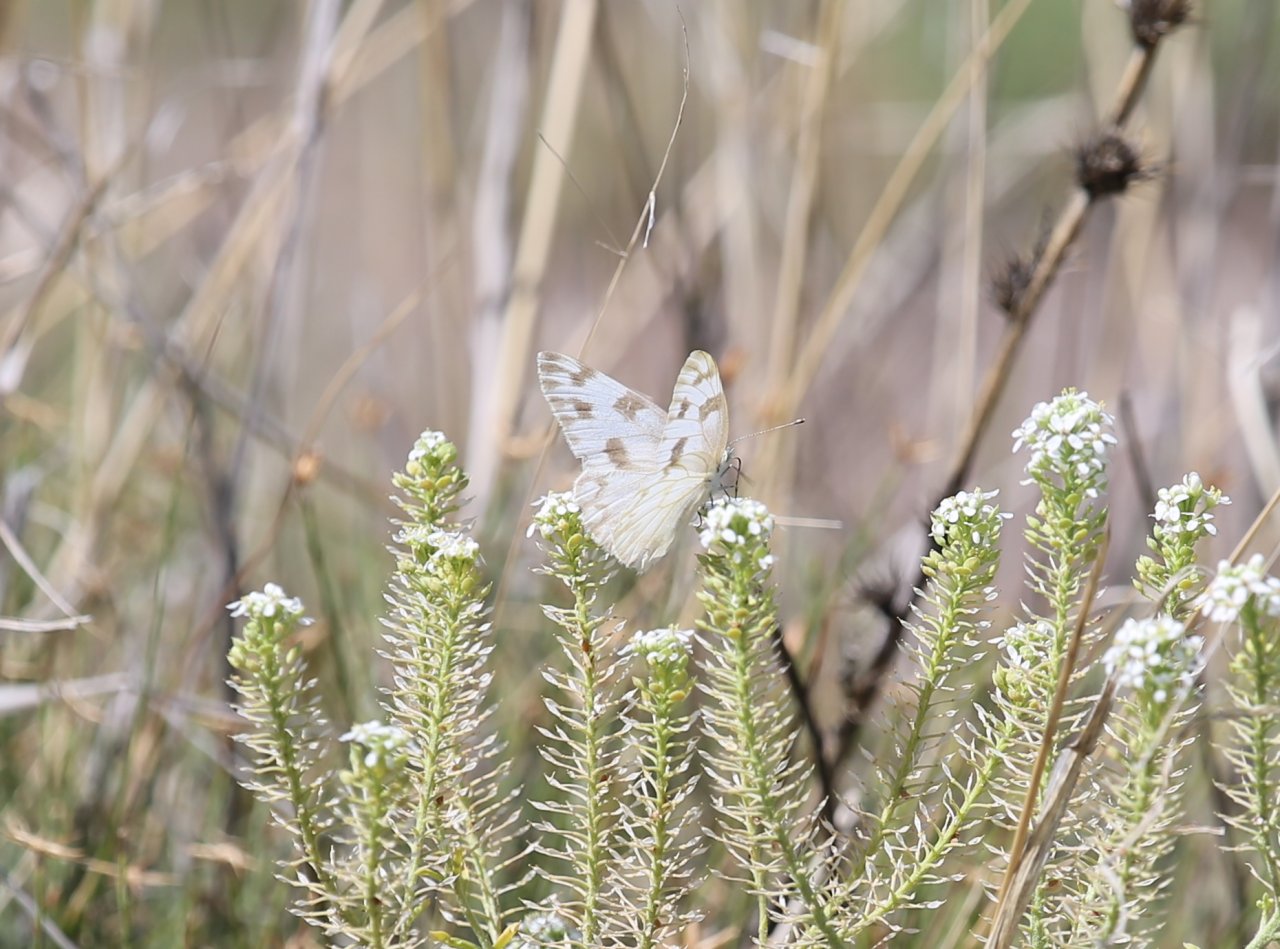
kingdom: Animalia
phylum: Arthropoda
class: Insecta
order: Lepidoptera
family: Pieridae
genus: Pontia
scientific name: Pontia protodice
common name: Checkered White
